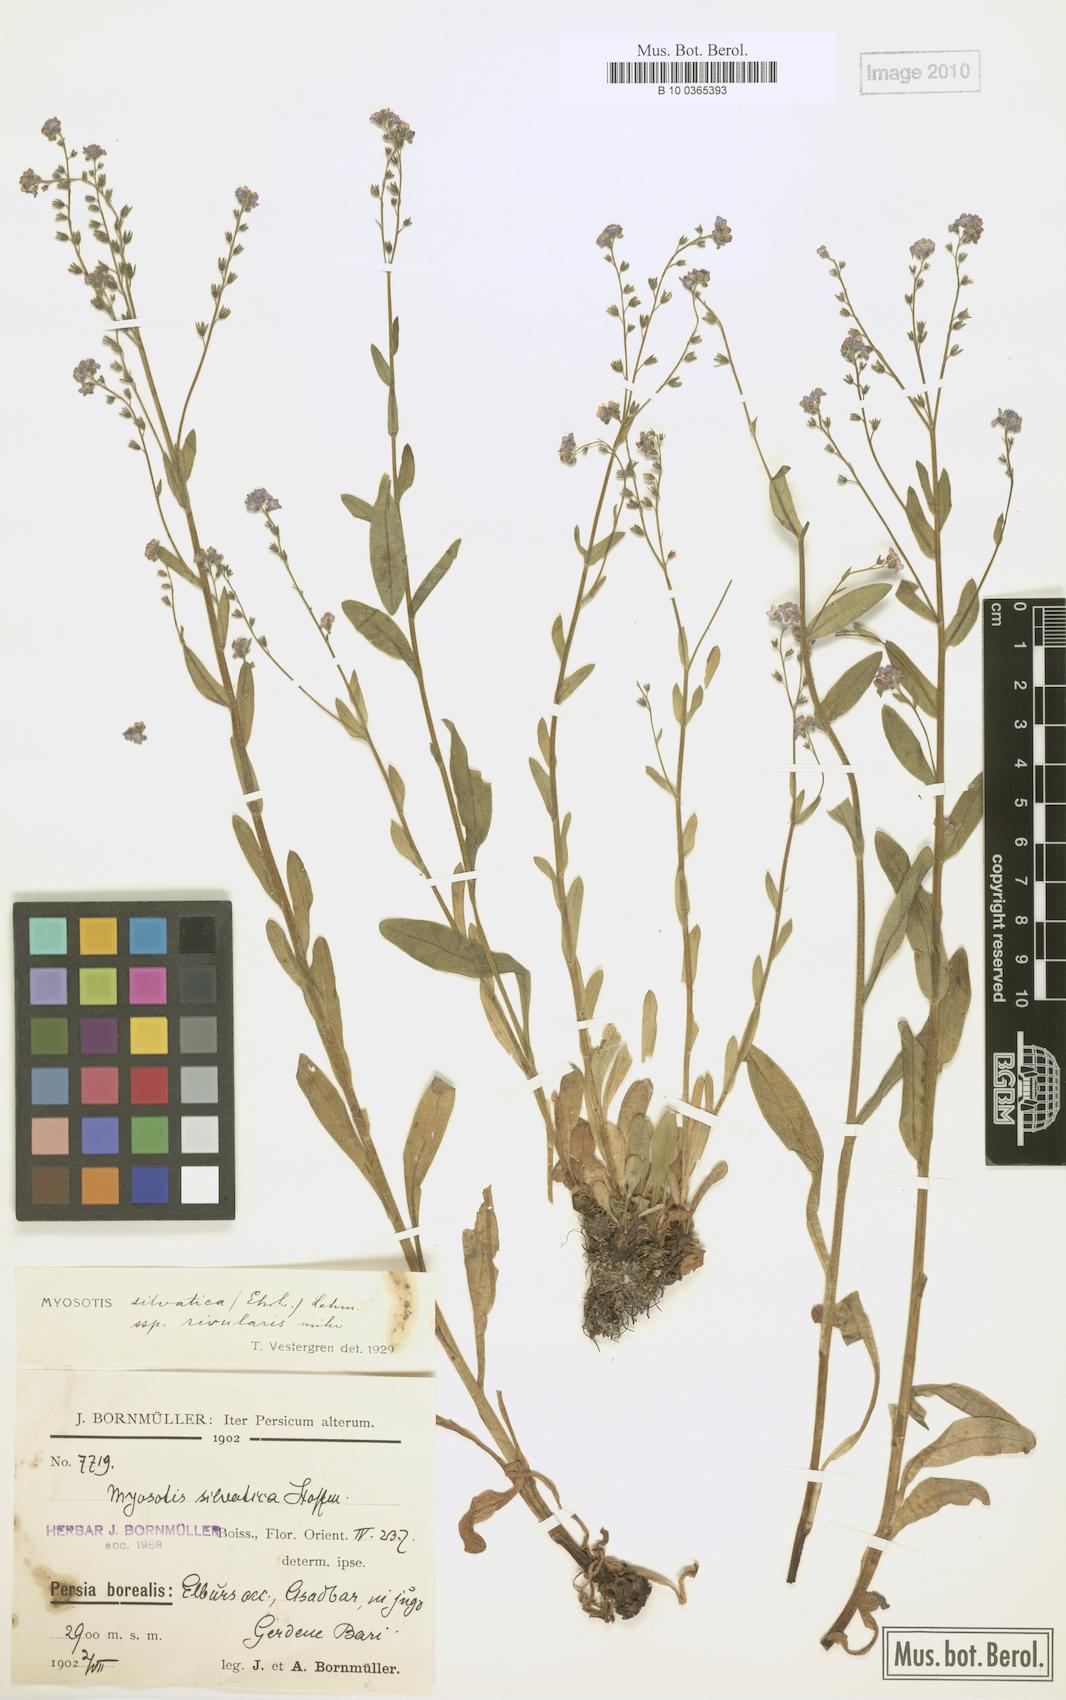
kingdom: Plantae
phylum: Tracheophyta
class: Magnoliopsida
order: Boraginales
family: Boraginaceae
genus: Myosotis
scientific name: Myosotis rivularis
